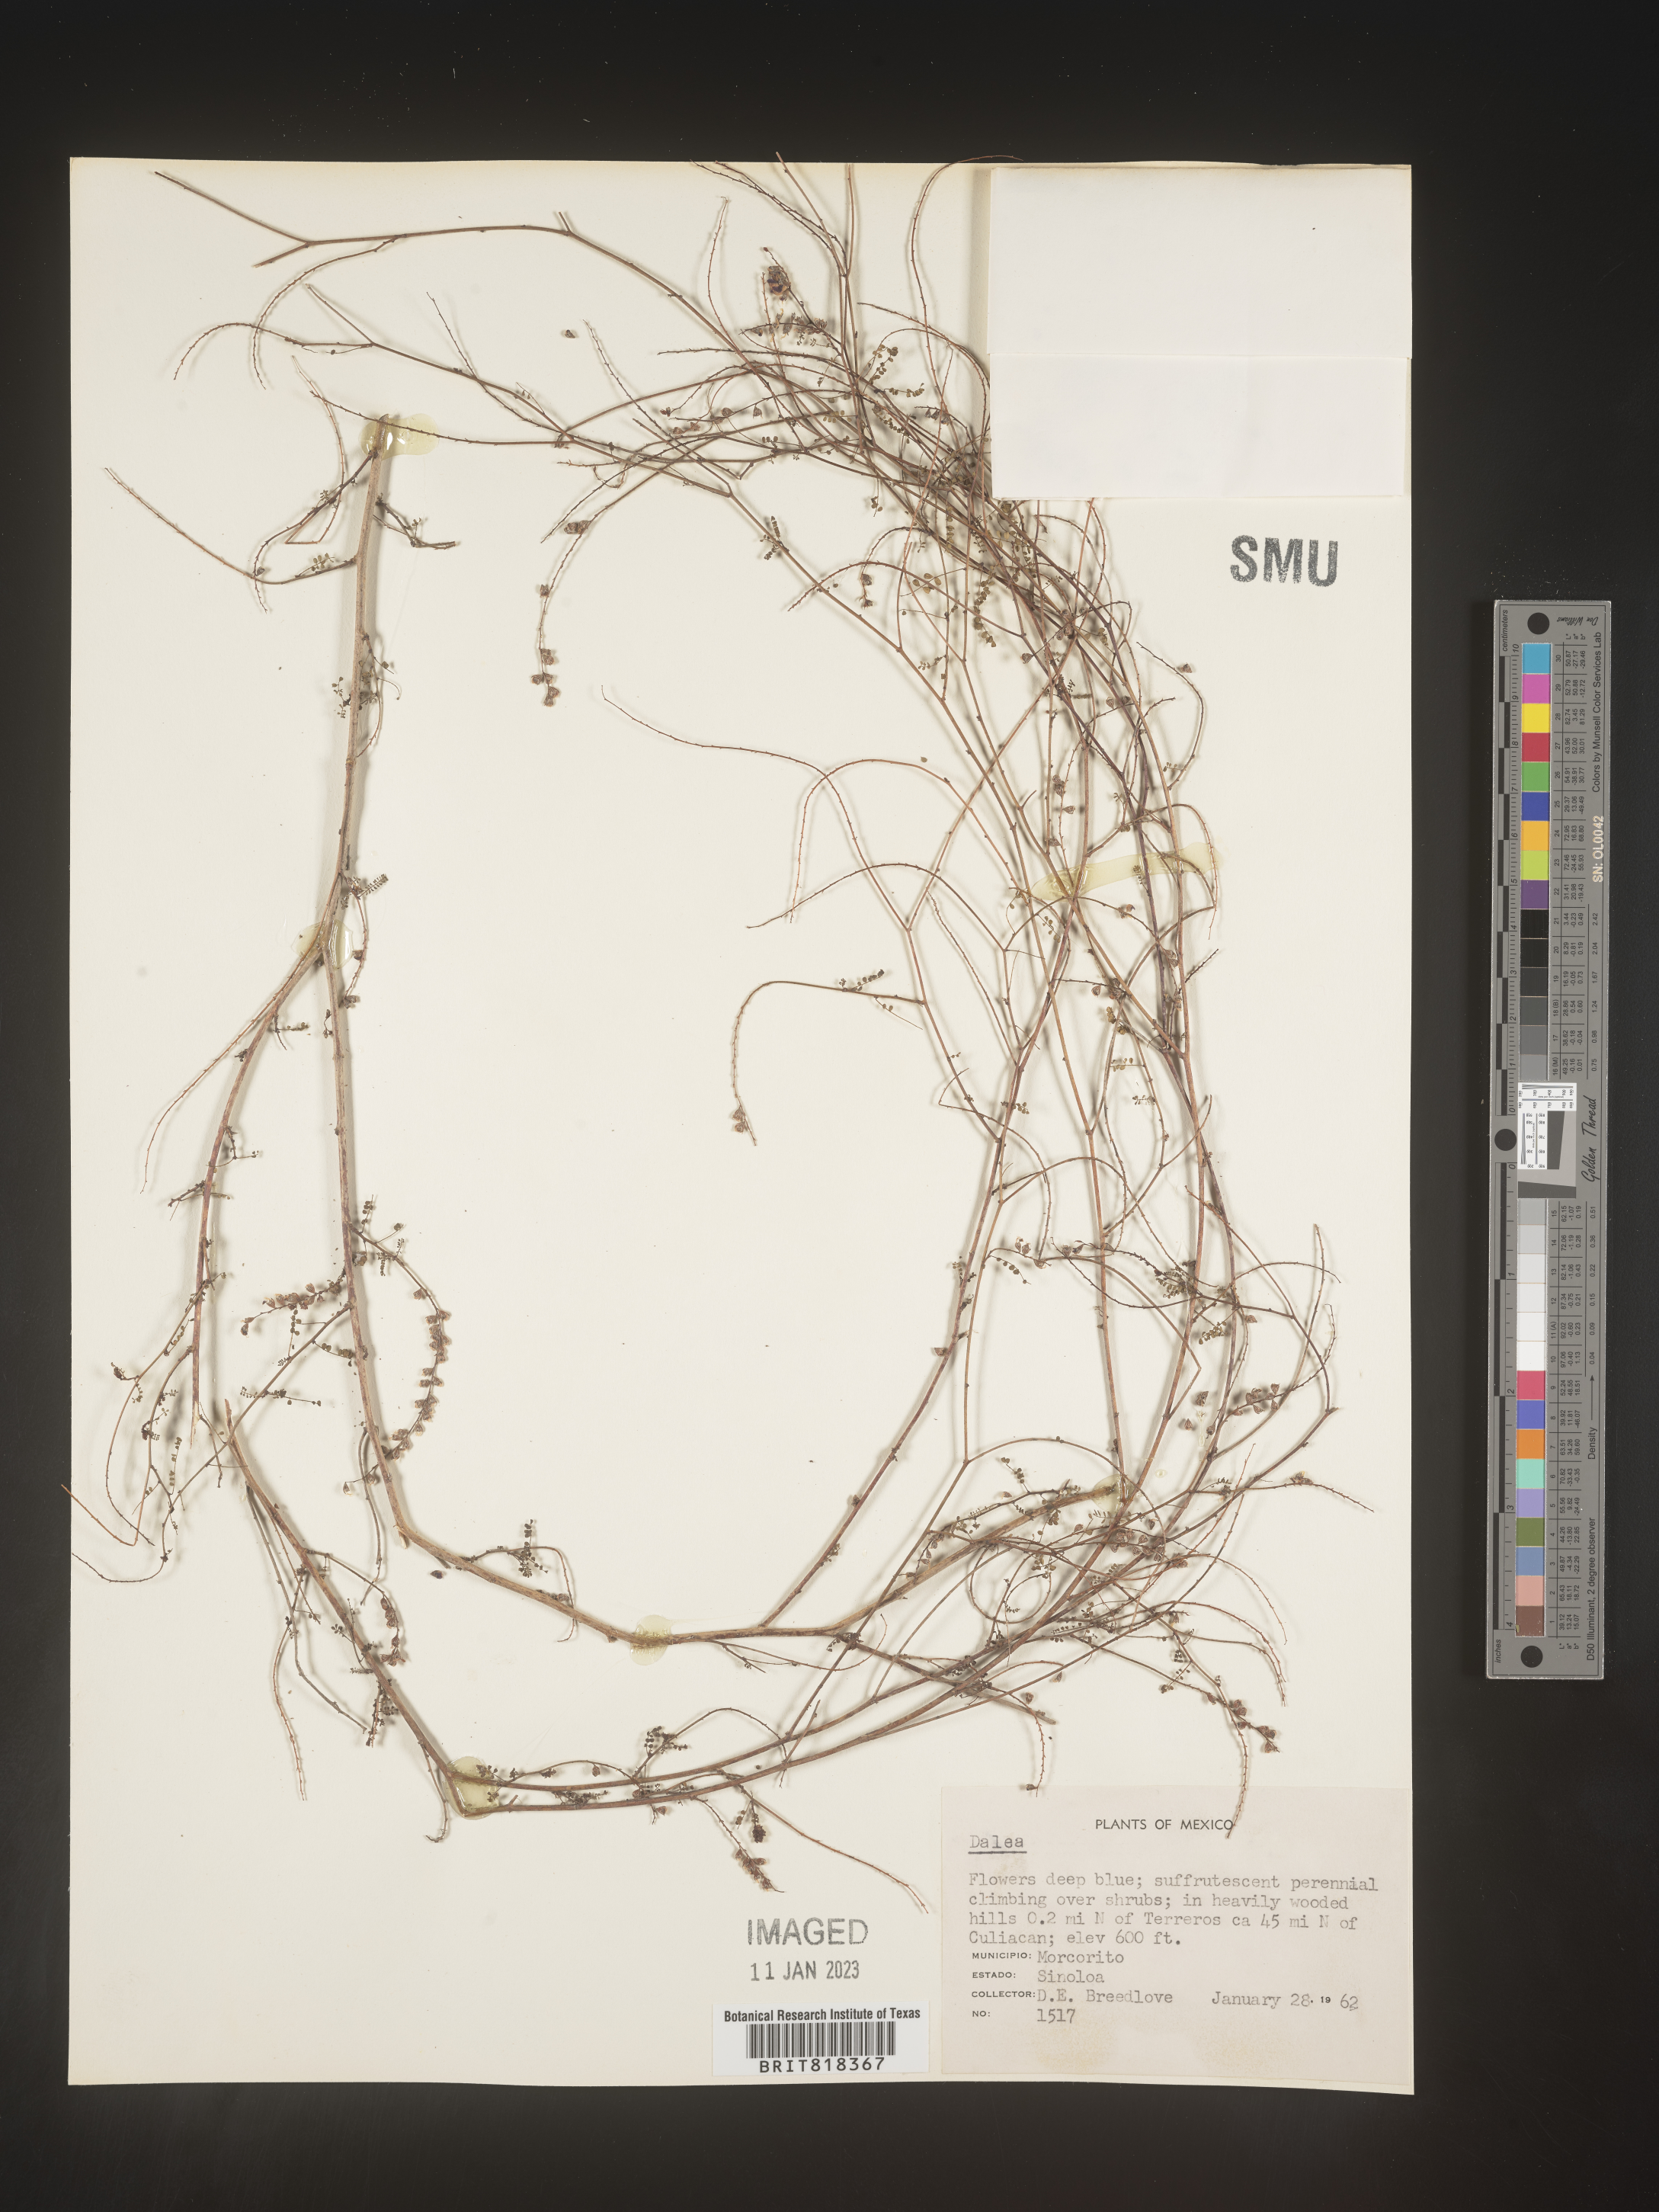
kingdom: Plantae
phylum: Tracheophyta
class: Magnoliopsida
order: Fabales
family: Fabaceae
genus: Dalea
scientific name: Dalea
